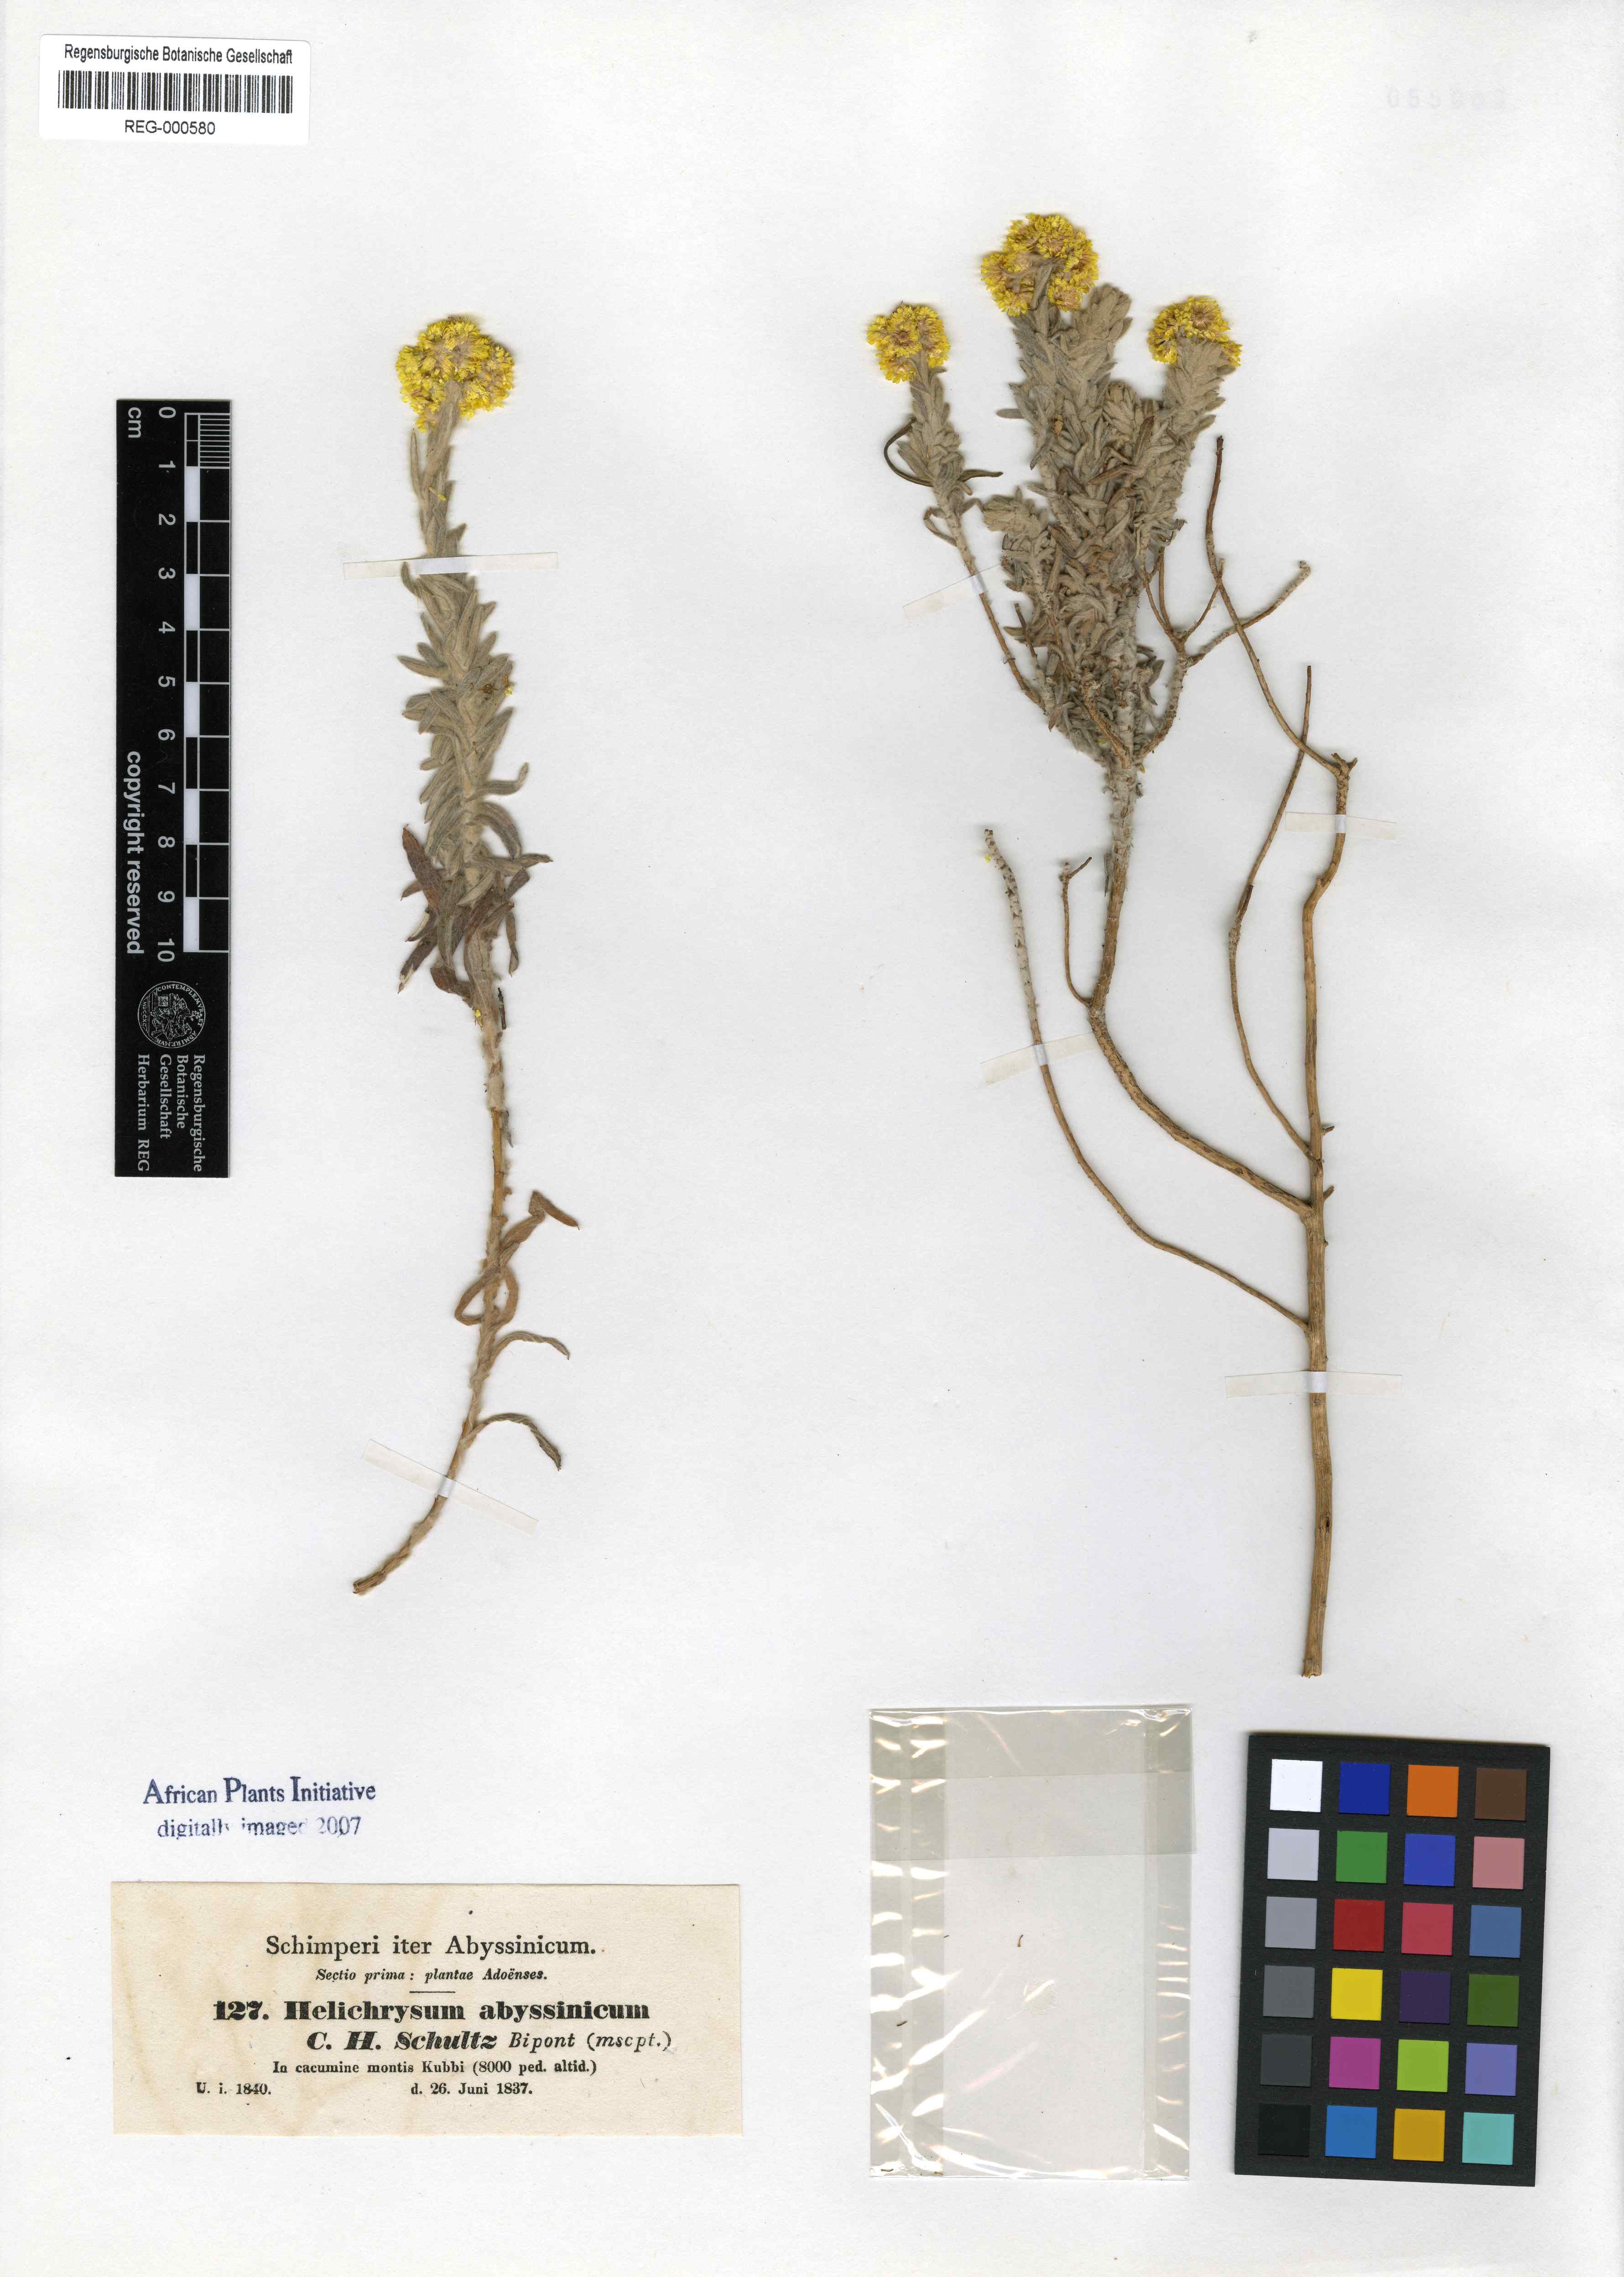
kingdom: Plantae
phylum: Tracheophyta
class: Magnoliopsida
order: Asterales
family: Asteraceae
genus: Helichrysum
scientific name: Helichrysum abyssinicum
